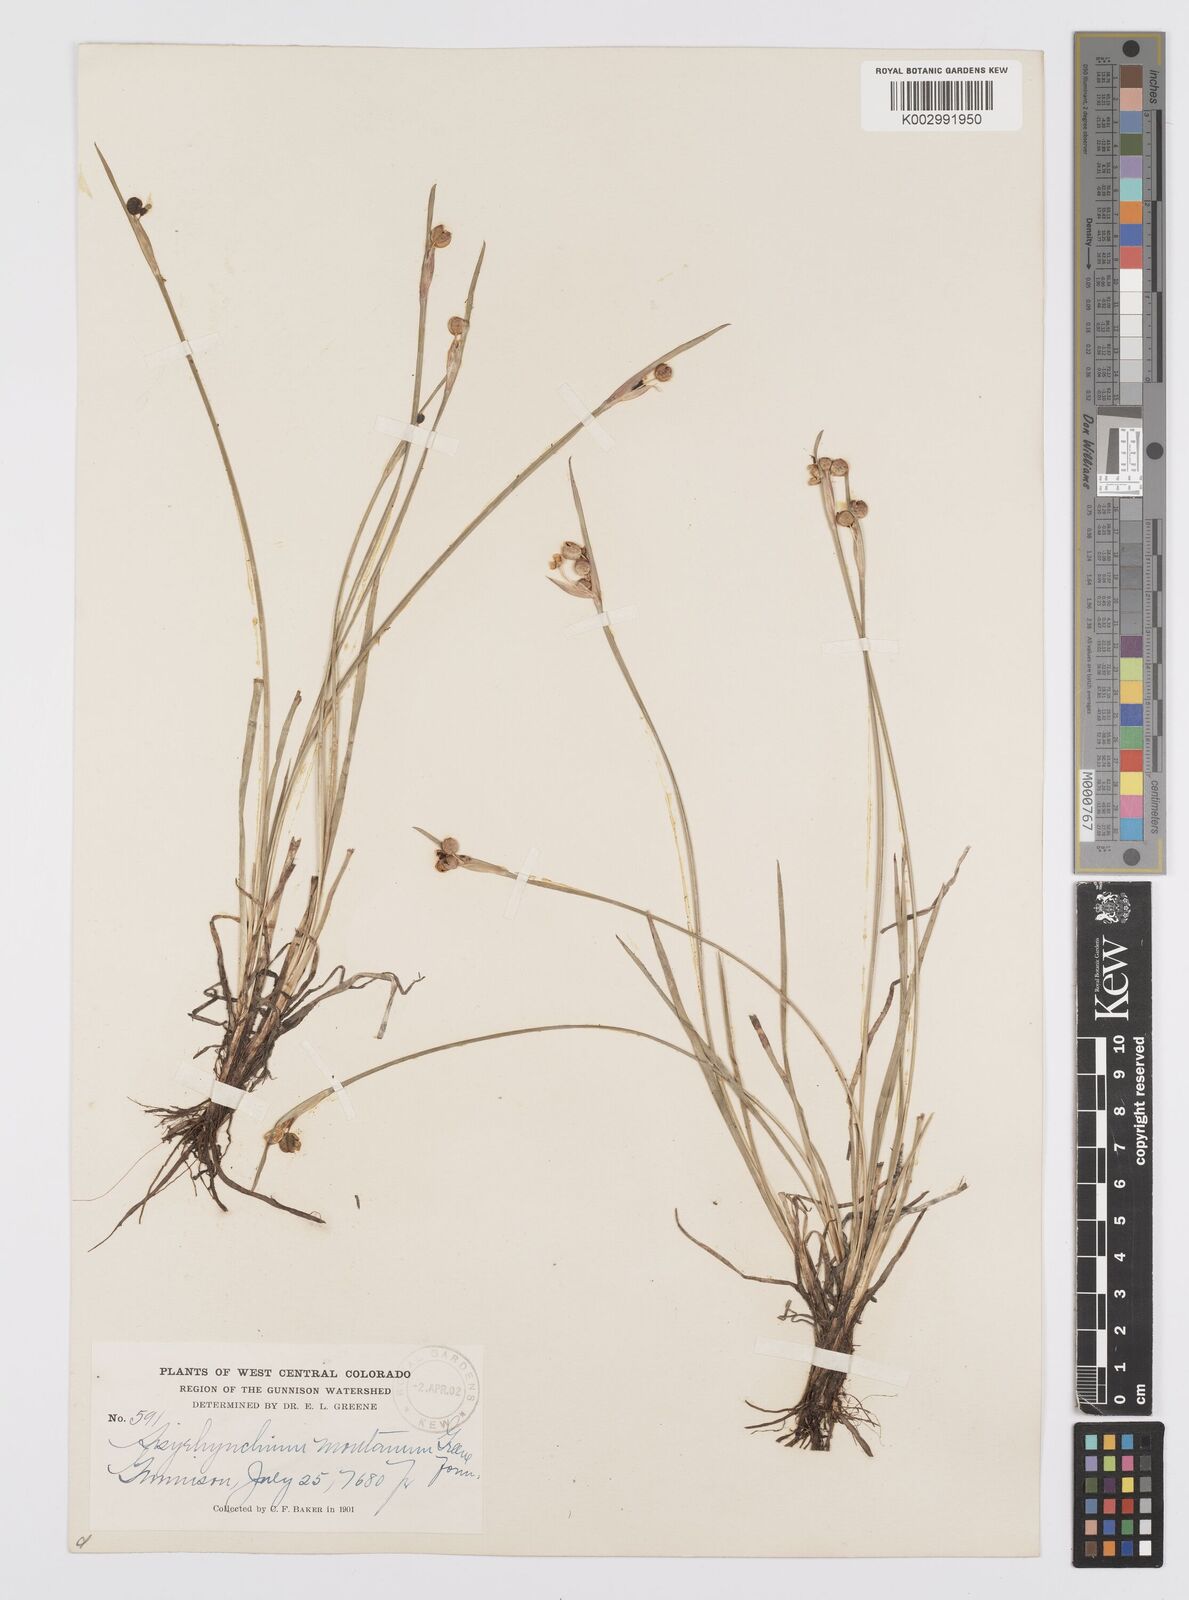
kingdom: Plantae
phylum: Tracheophyta
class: Liliopsida
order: Asparagales
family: Iridaceae
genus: Sisyrinchium
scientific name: Sisyrinchium montanum
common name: American blue-eyed-grass
